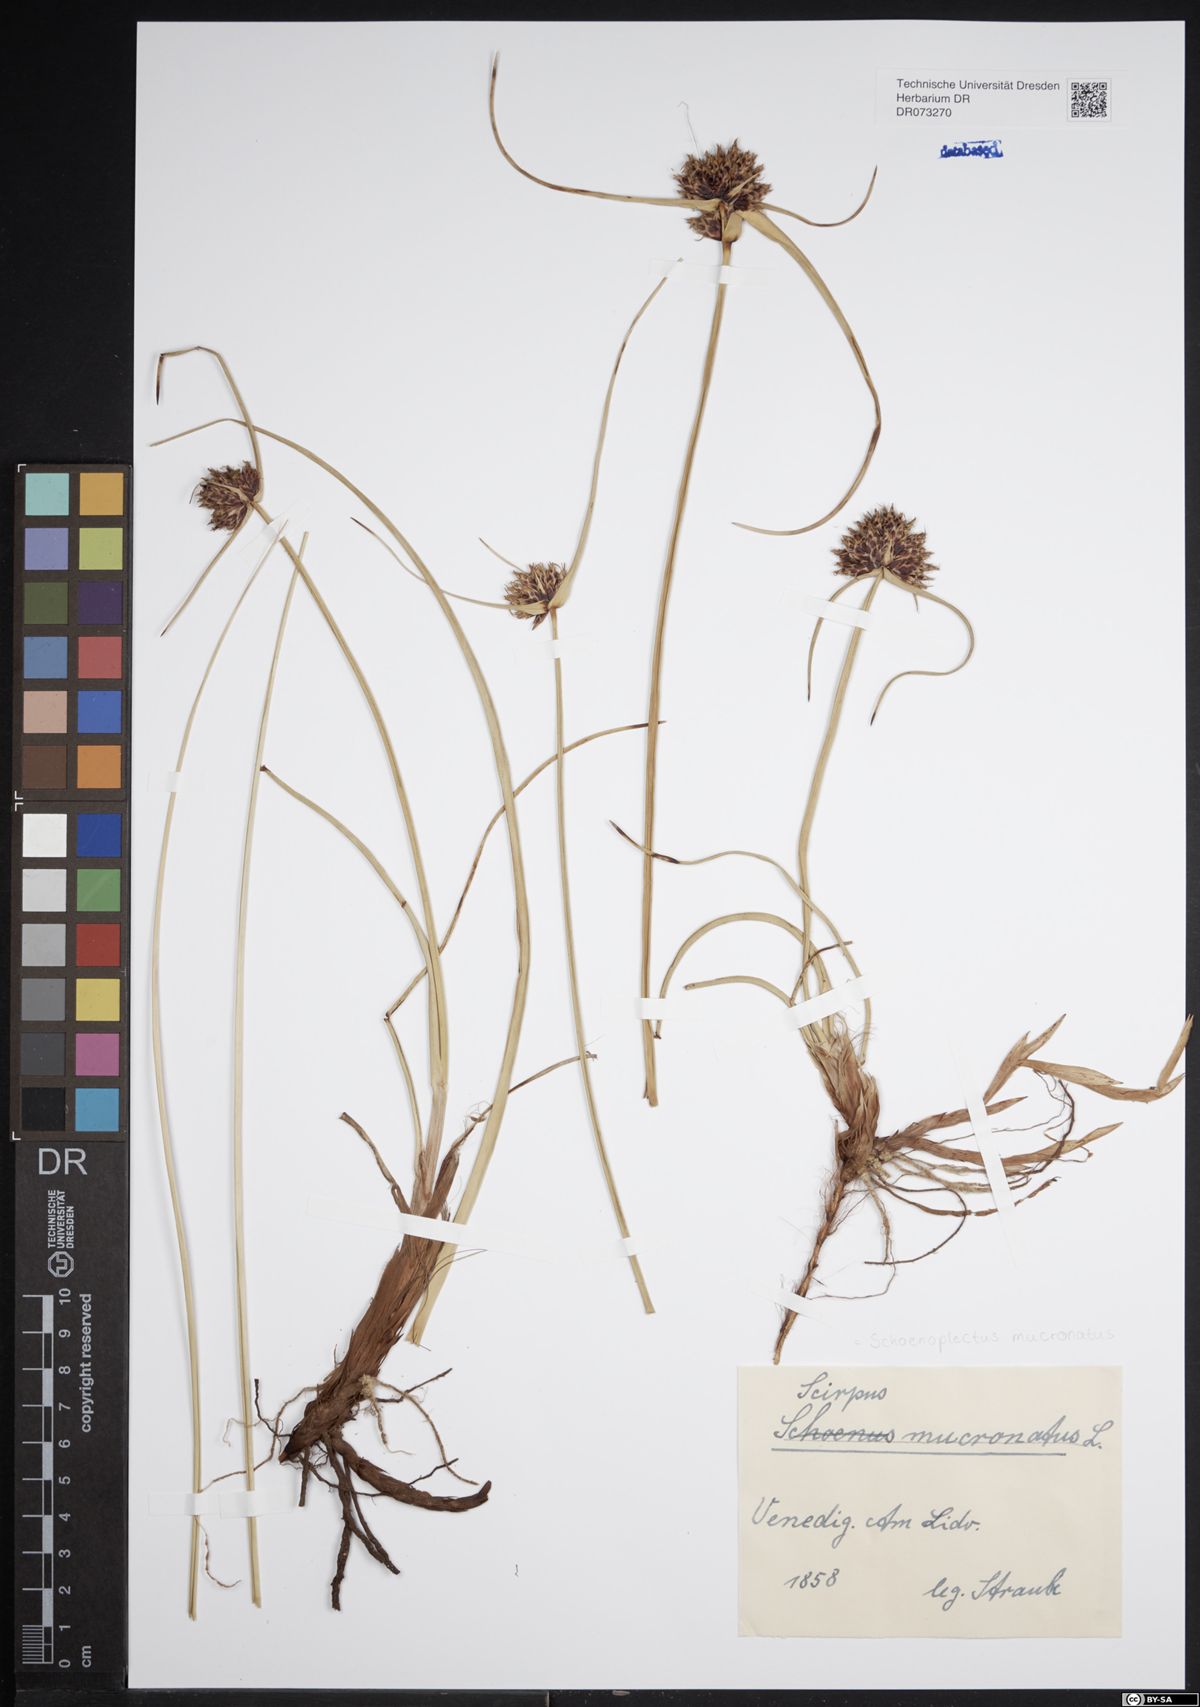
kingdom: Plantae
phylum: Tracheophyta
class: Liliopsida
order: Poales
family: Cyperaceae
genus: Schoenoplectiella
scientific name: Schoenoplectiella mucronata
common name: Bog bulrush
